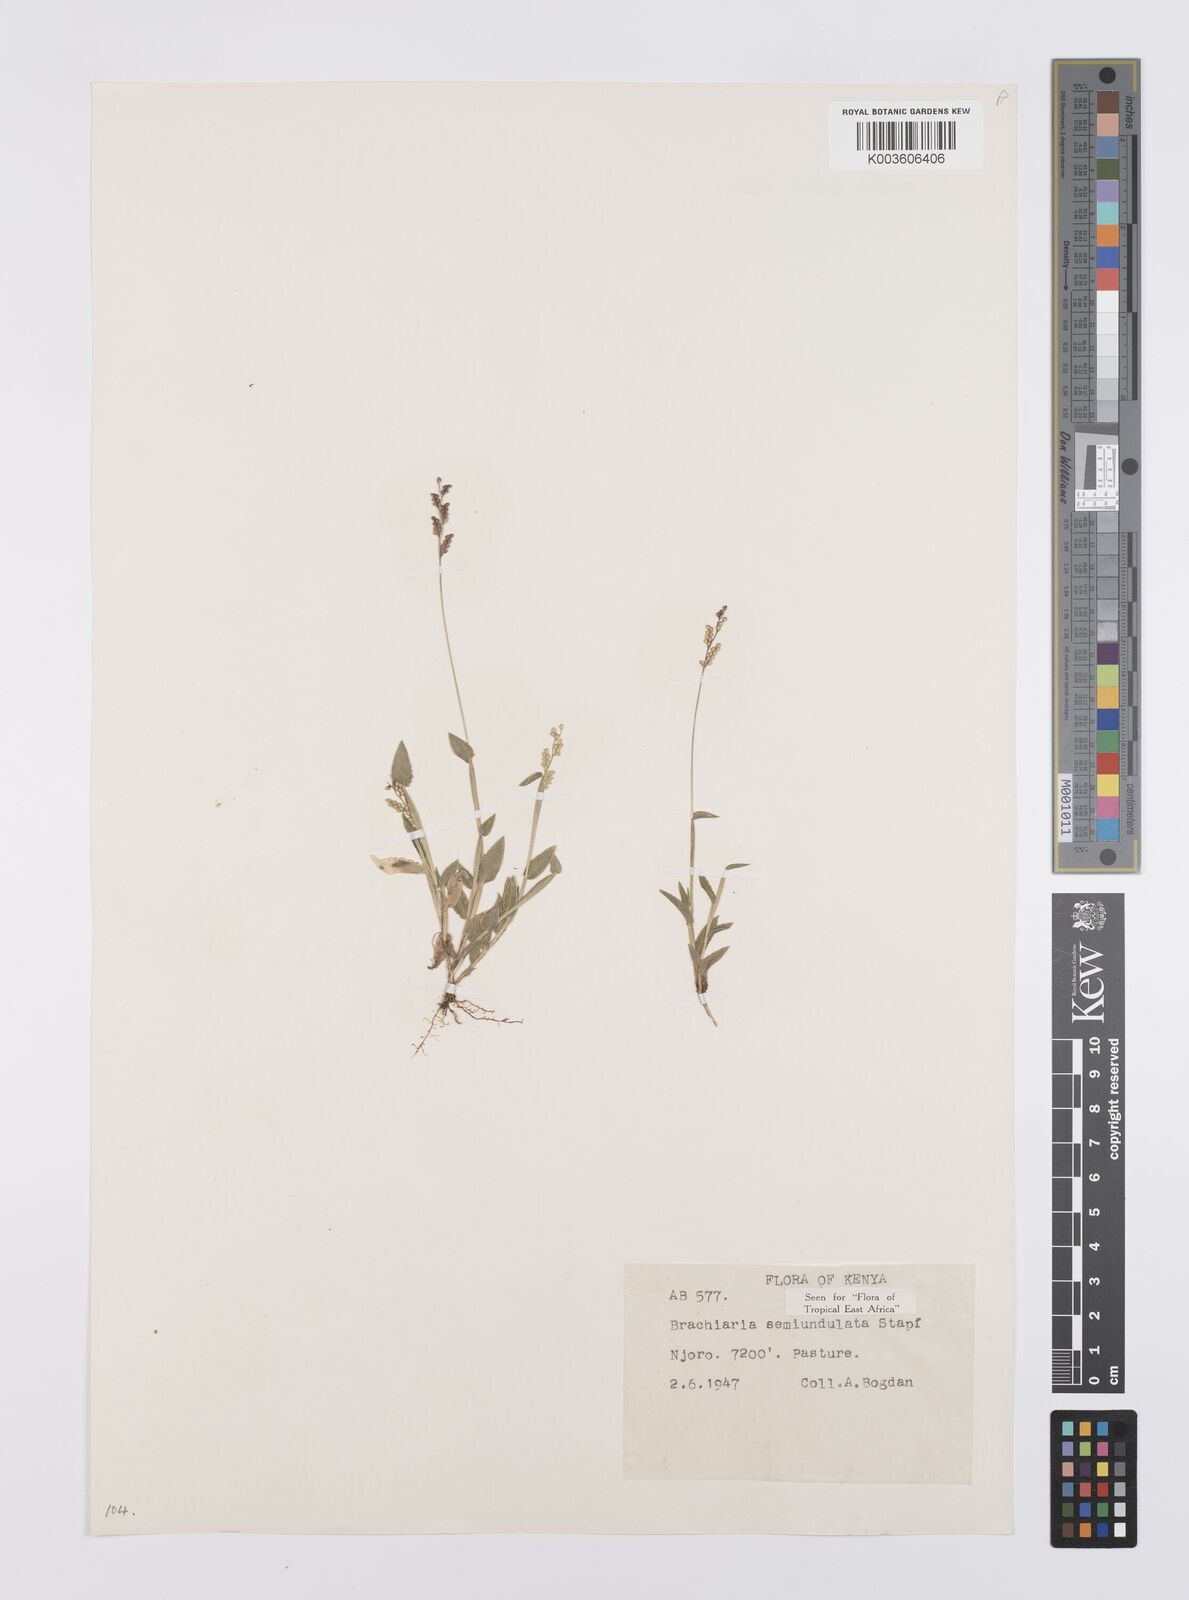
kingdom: Plantae
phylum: Tracheophyta
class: Liliopsida
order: Poales
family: Poaceae
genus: Urochloa
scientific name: Urochloa semiundulata
